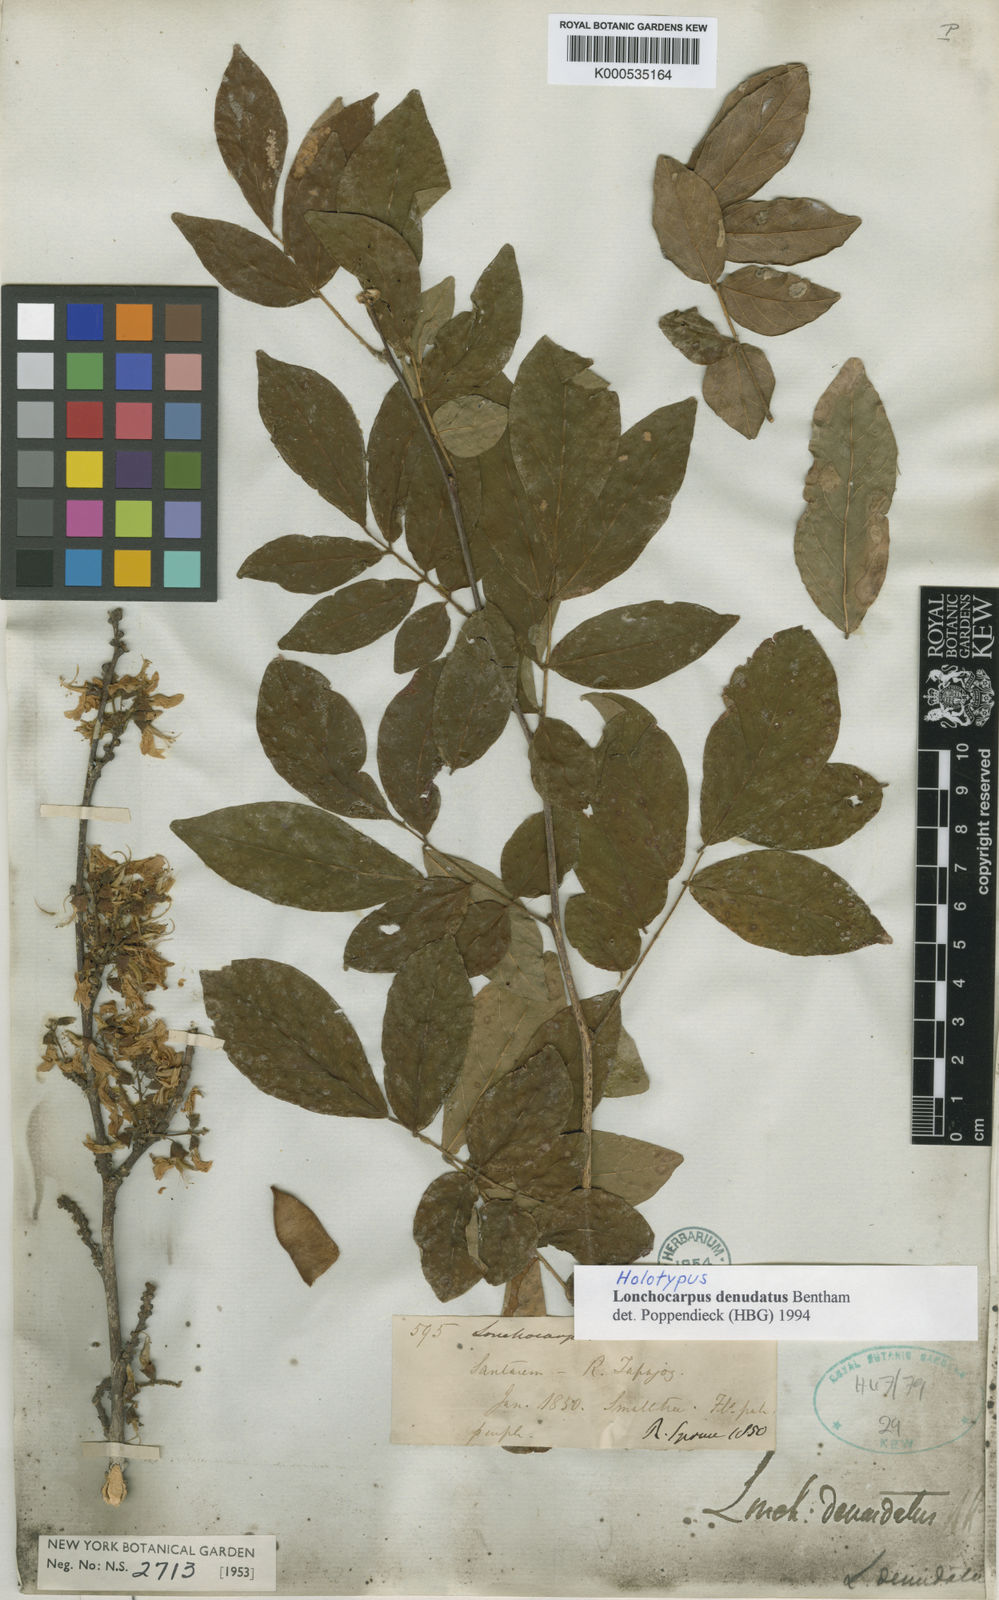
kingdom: Plantae
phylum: Tracheophyta
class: Magnoliopsida
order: Fabales
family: Fabaceae
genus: Muellera
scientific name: Muellera denudata
